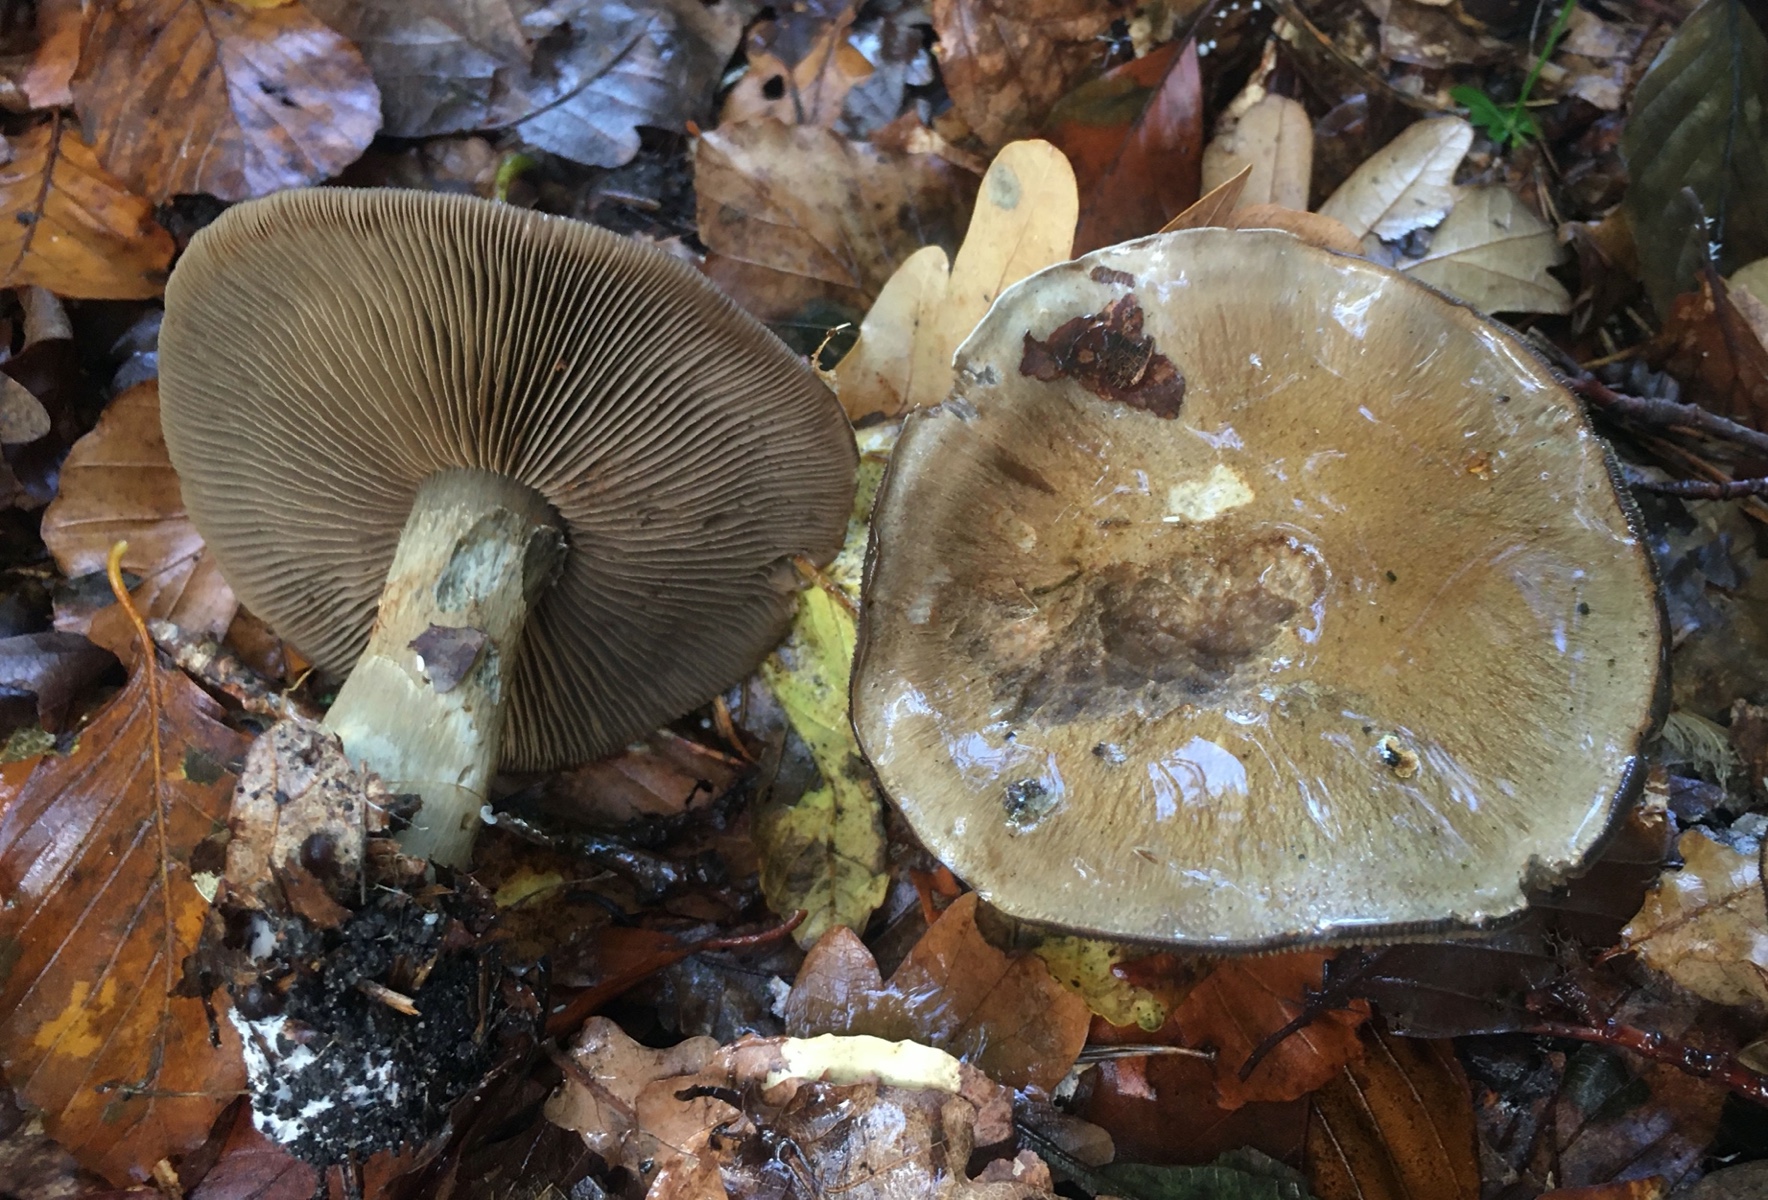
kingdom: Fungi
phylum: Basidiomycota
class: Agaricomycetes
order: Agaricales
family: Cortinariaceae
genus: Cortinarius
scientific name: Cortinarius
